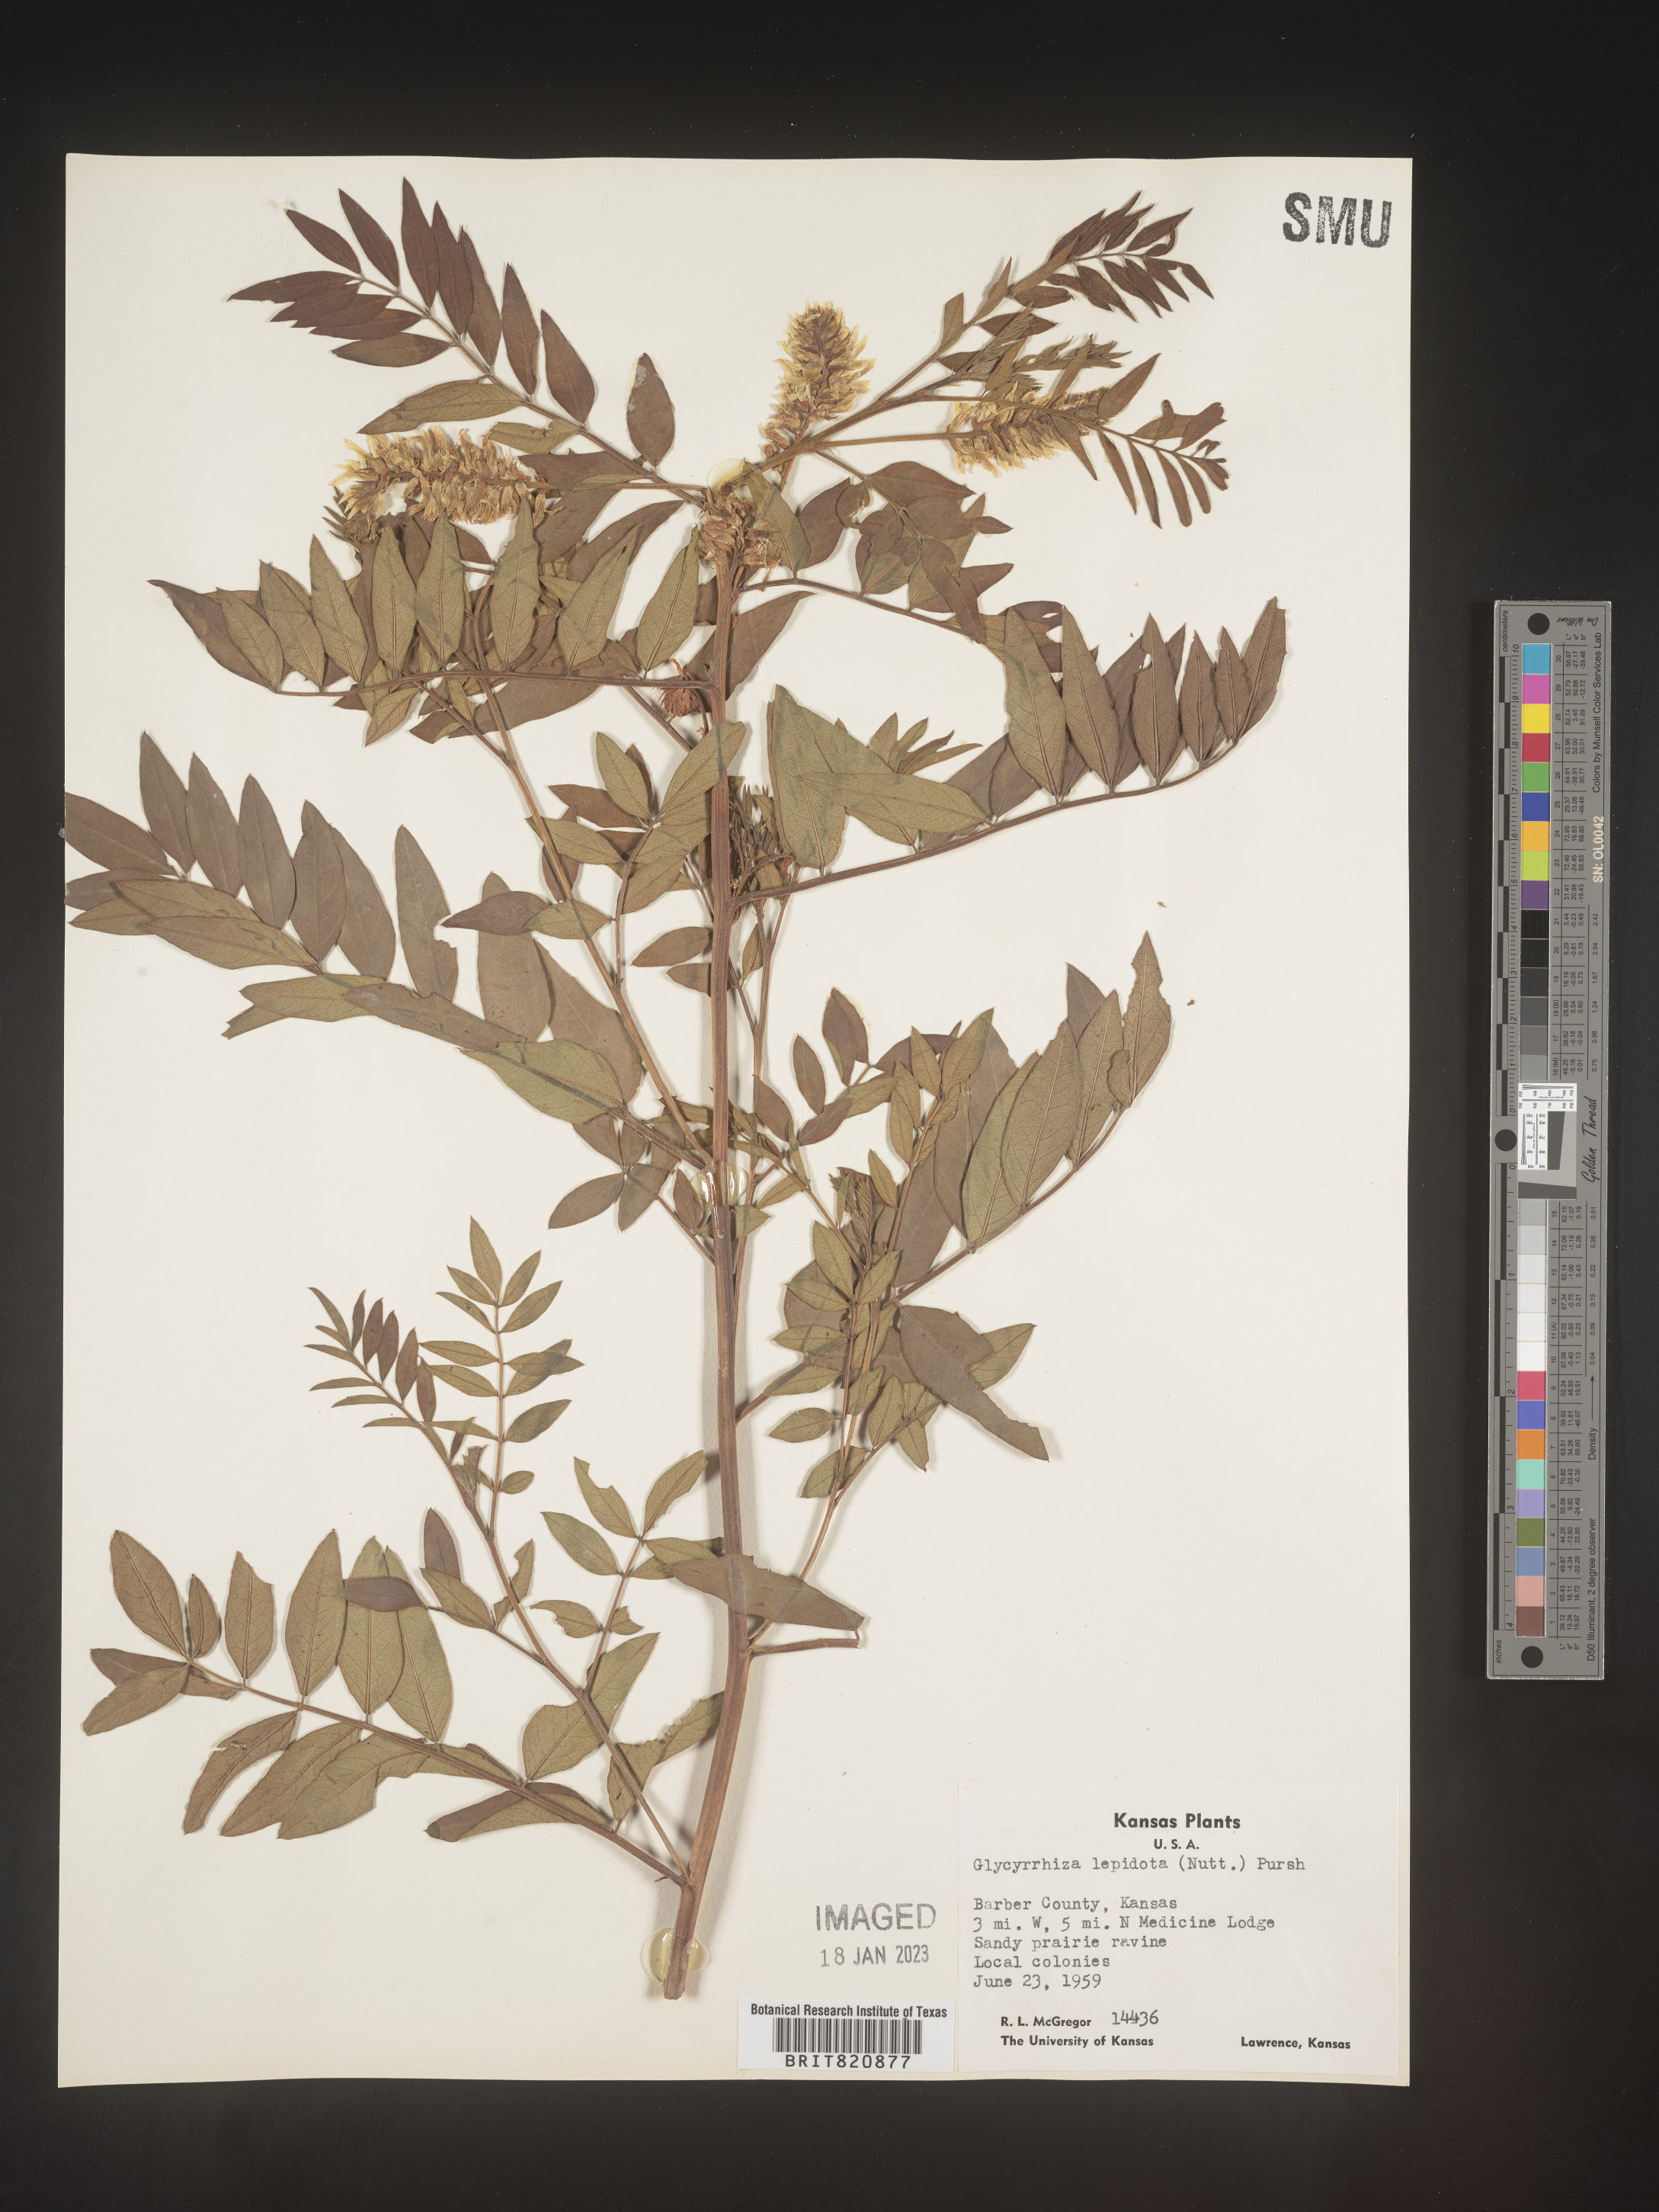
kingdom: Plantae
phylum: Tracheophyta
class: Magnoliopsida
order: Fabales
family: Fabaceae
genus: Glycyrrhiza
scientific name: Glycyrrhiza lepidota
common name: American liquorice
